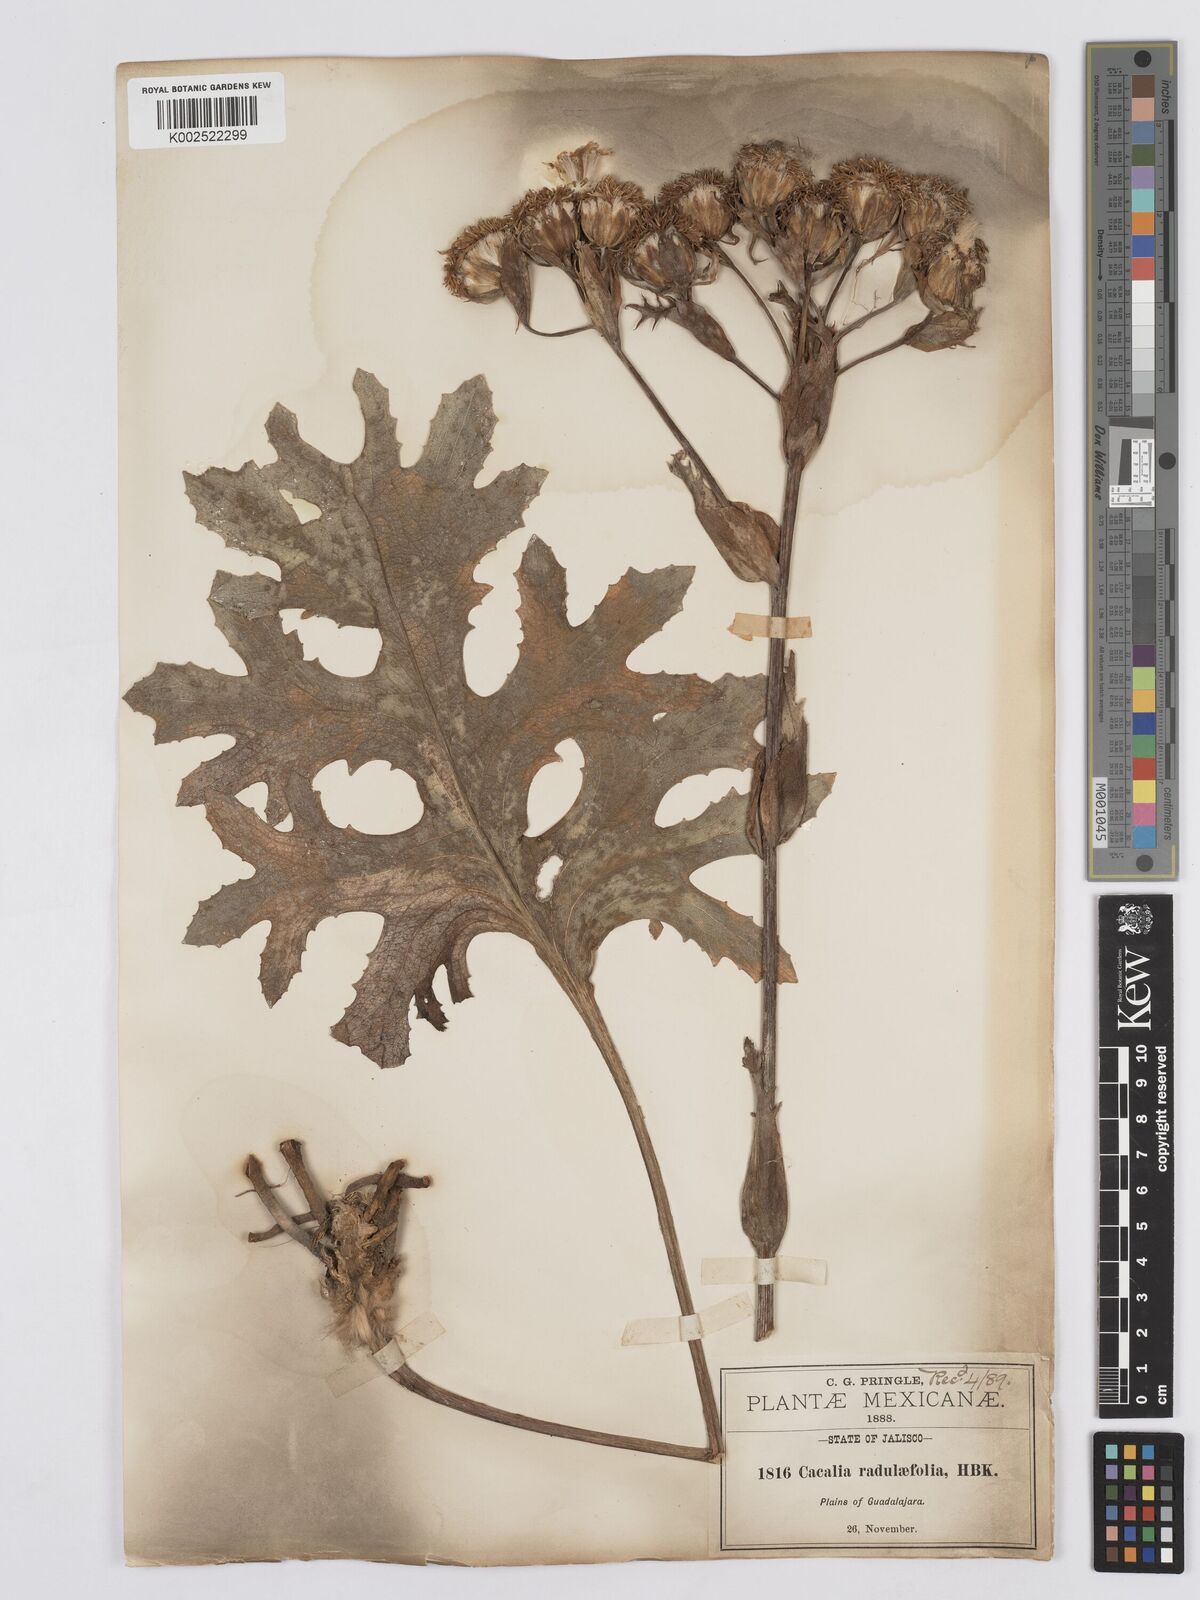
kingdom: Plantae
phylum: Tracheophyta
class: Magnoliopsida
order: Asterales
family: Asteraceae
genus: Psacalium
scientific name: Psacalium radulifolium
